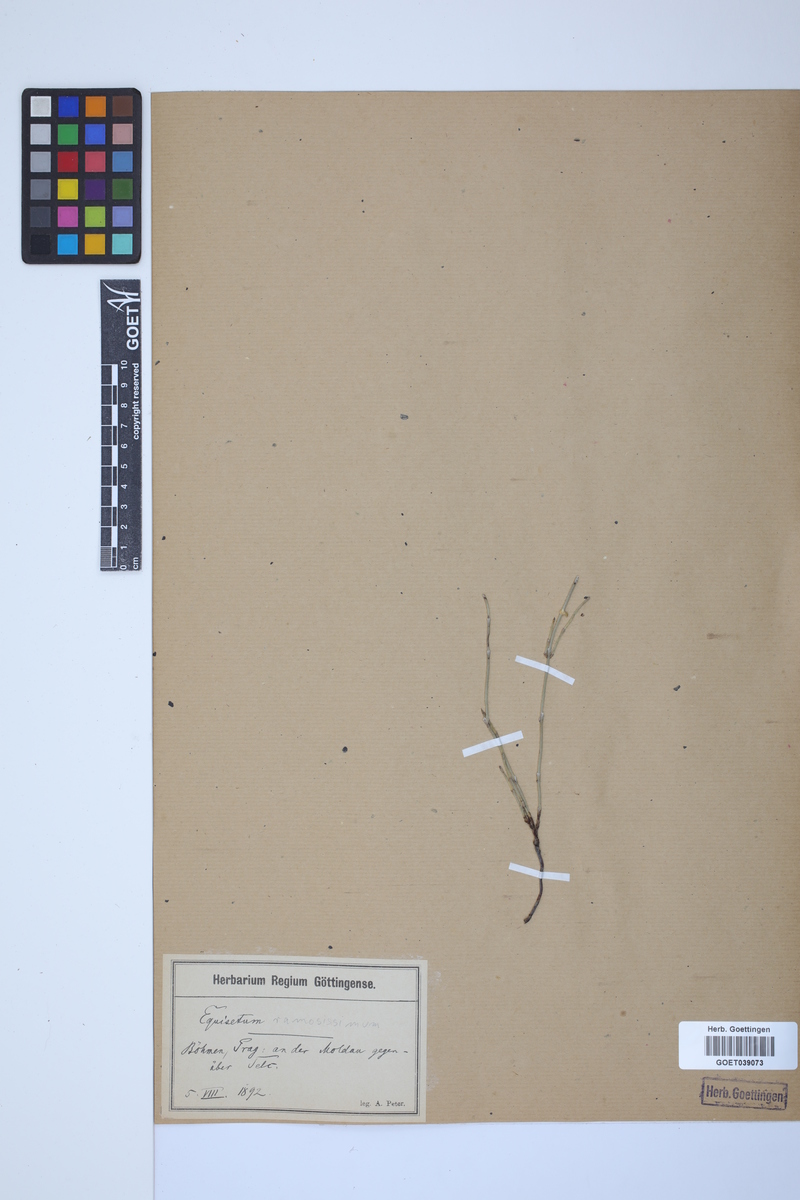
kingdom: Plantae
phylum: Tracheophyta
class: Polypodiopsida
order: Equisetales
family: Equisetaceae
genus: Equisetum
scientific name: Equisetum giganteum
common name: Giant horsetail
